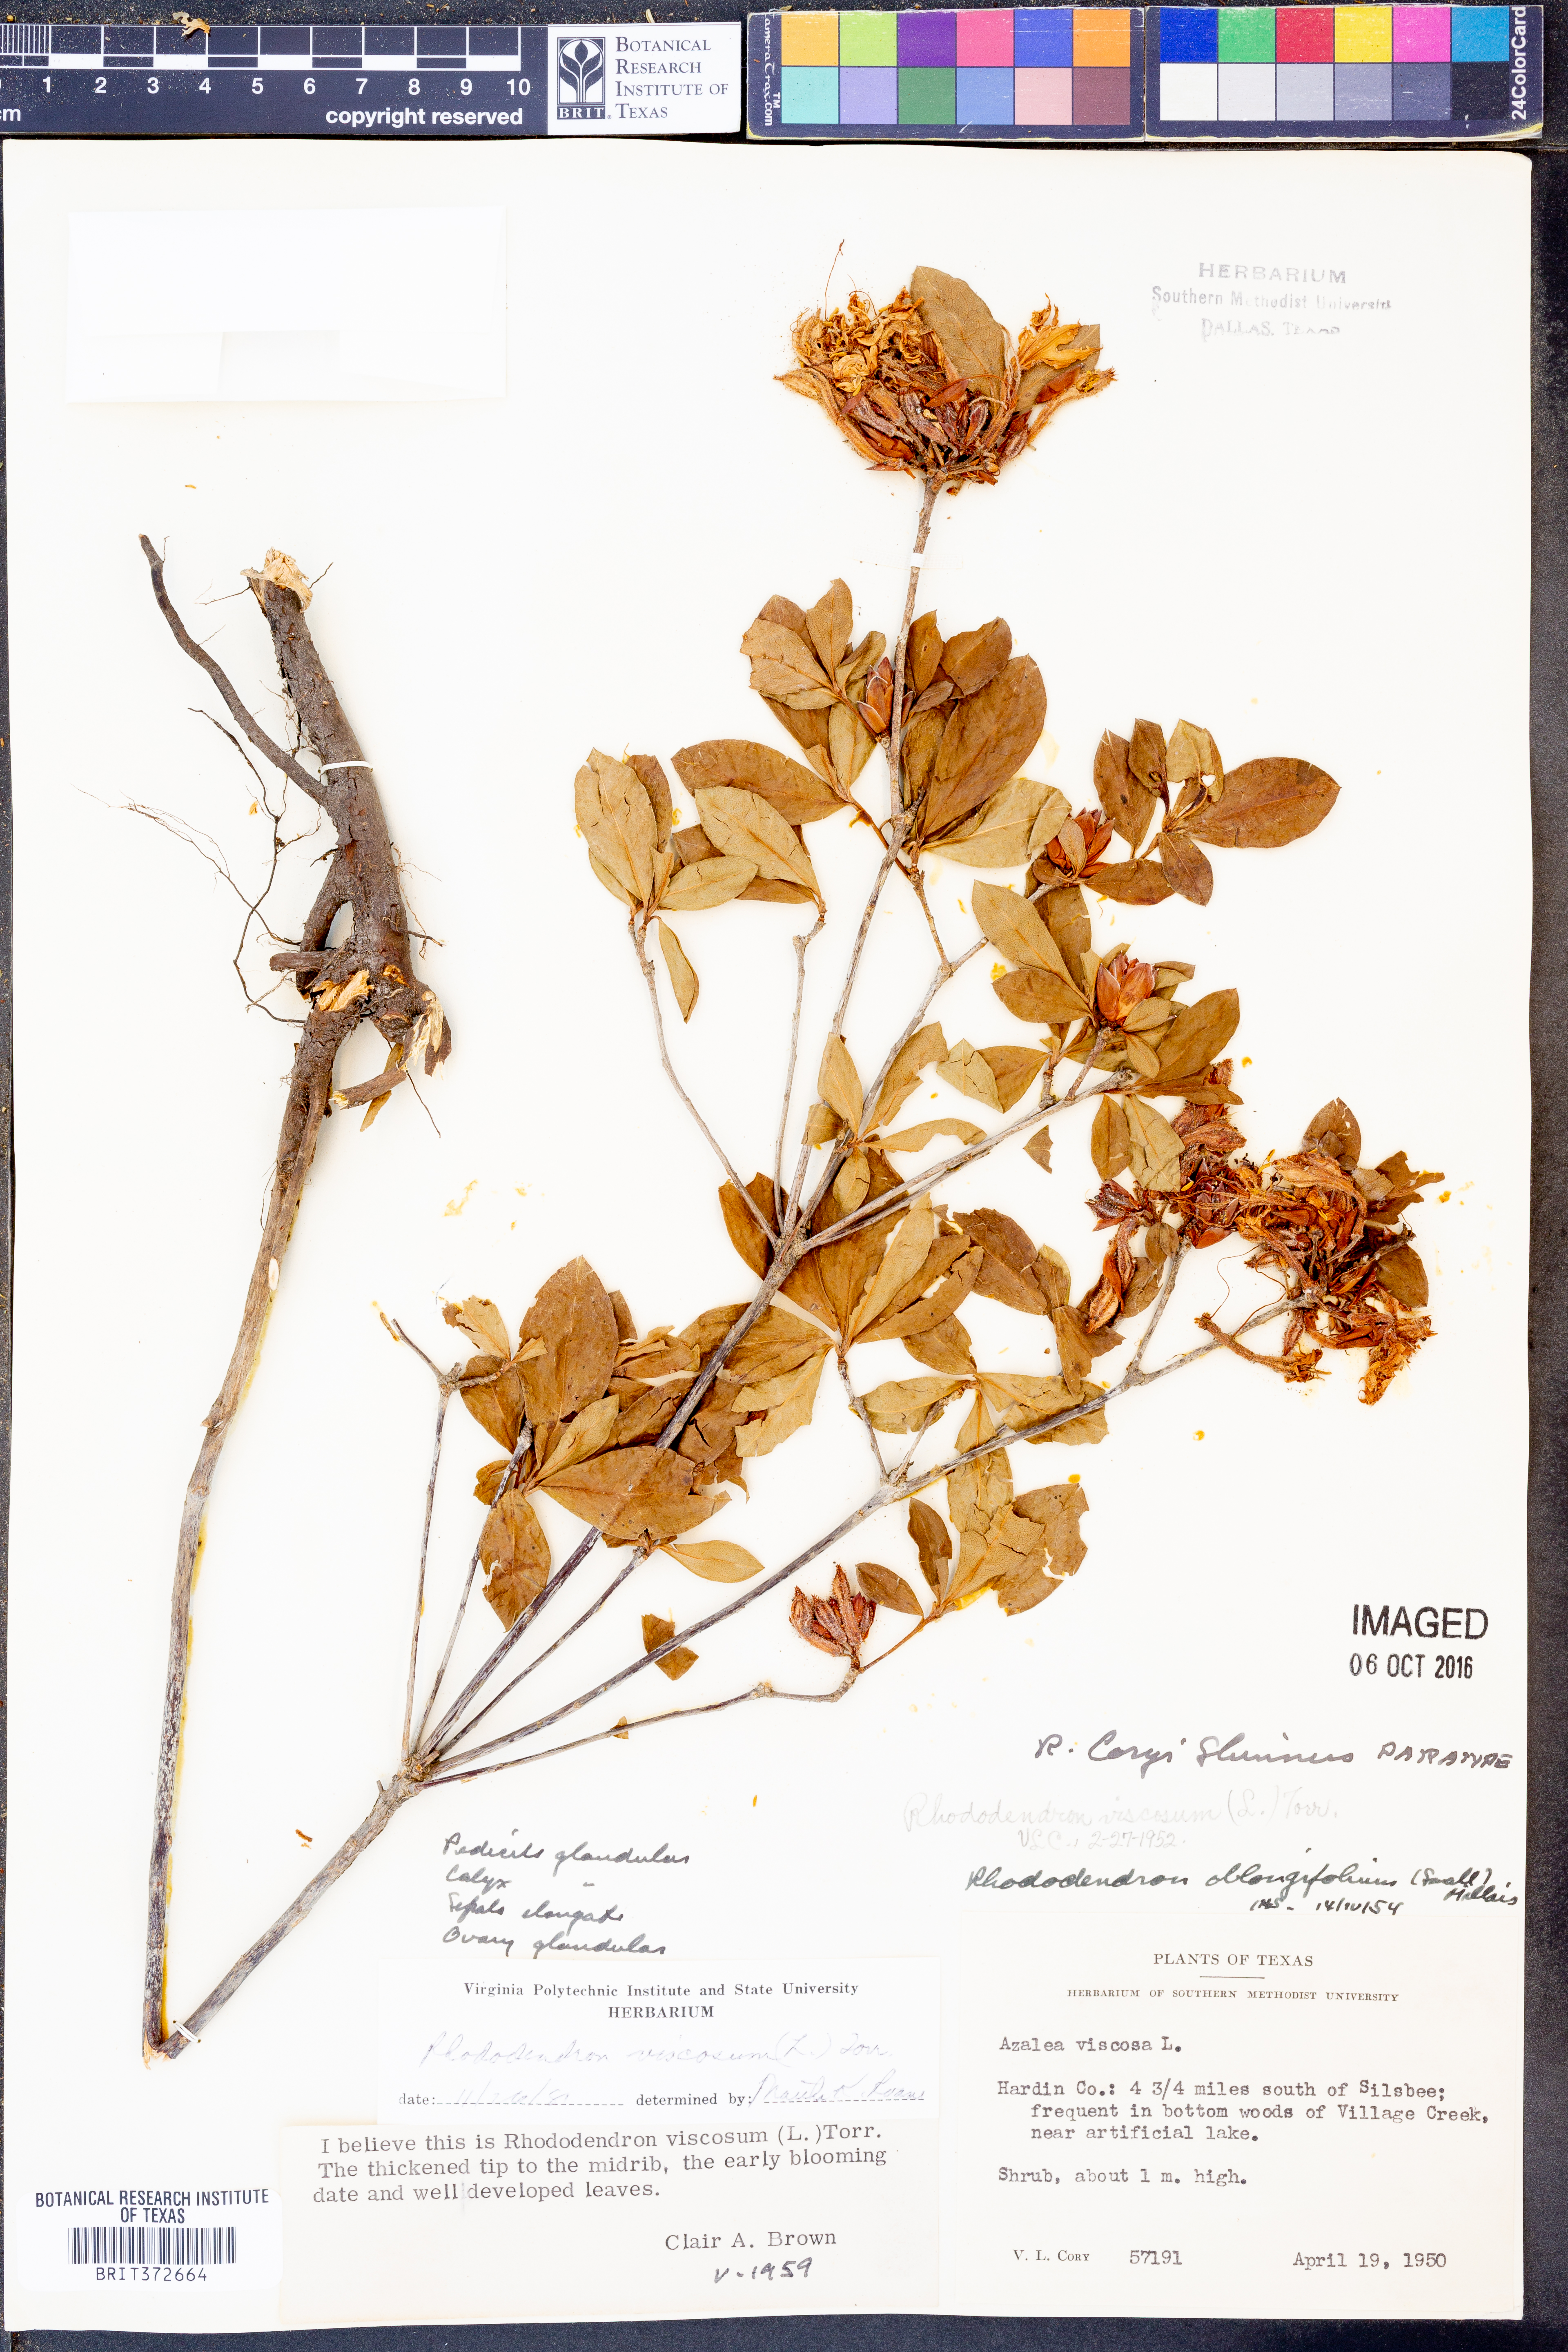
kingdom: Plantae
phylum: Tracheophyta
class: Magnoliopsida
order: Ericales
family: Ericaceae
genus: Rhododendron
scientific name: Rhododendron viscosum
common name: Clammy azalea
